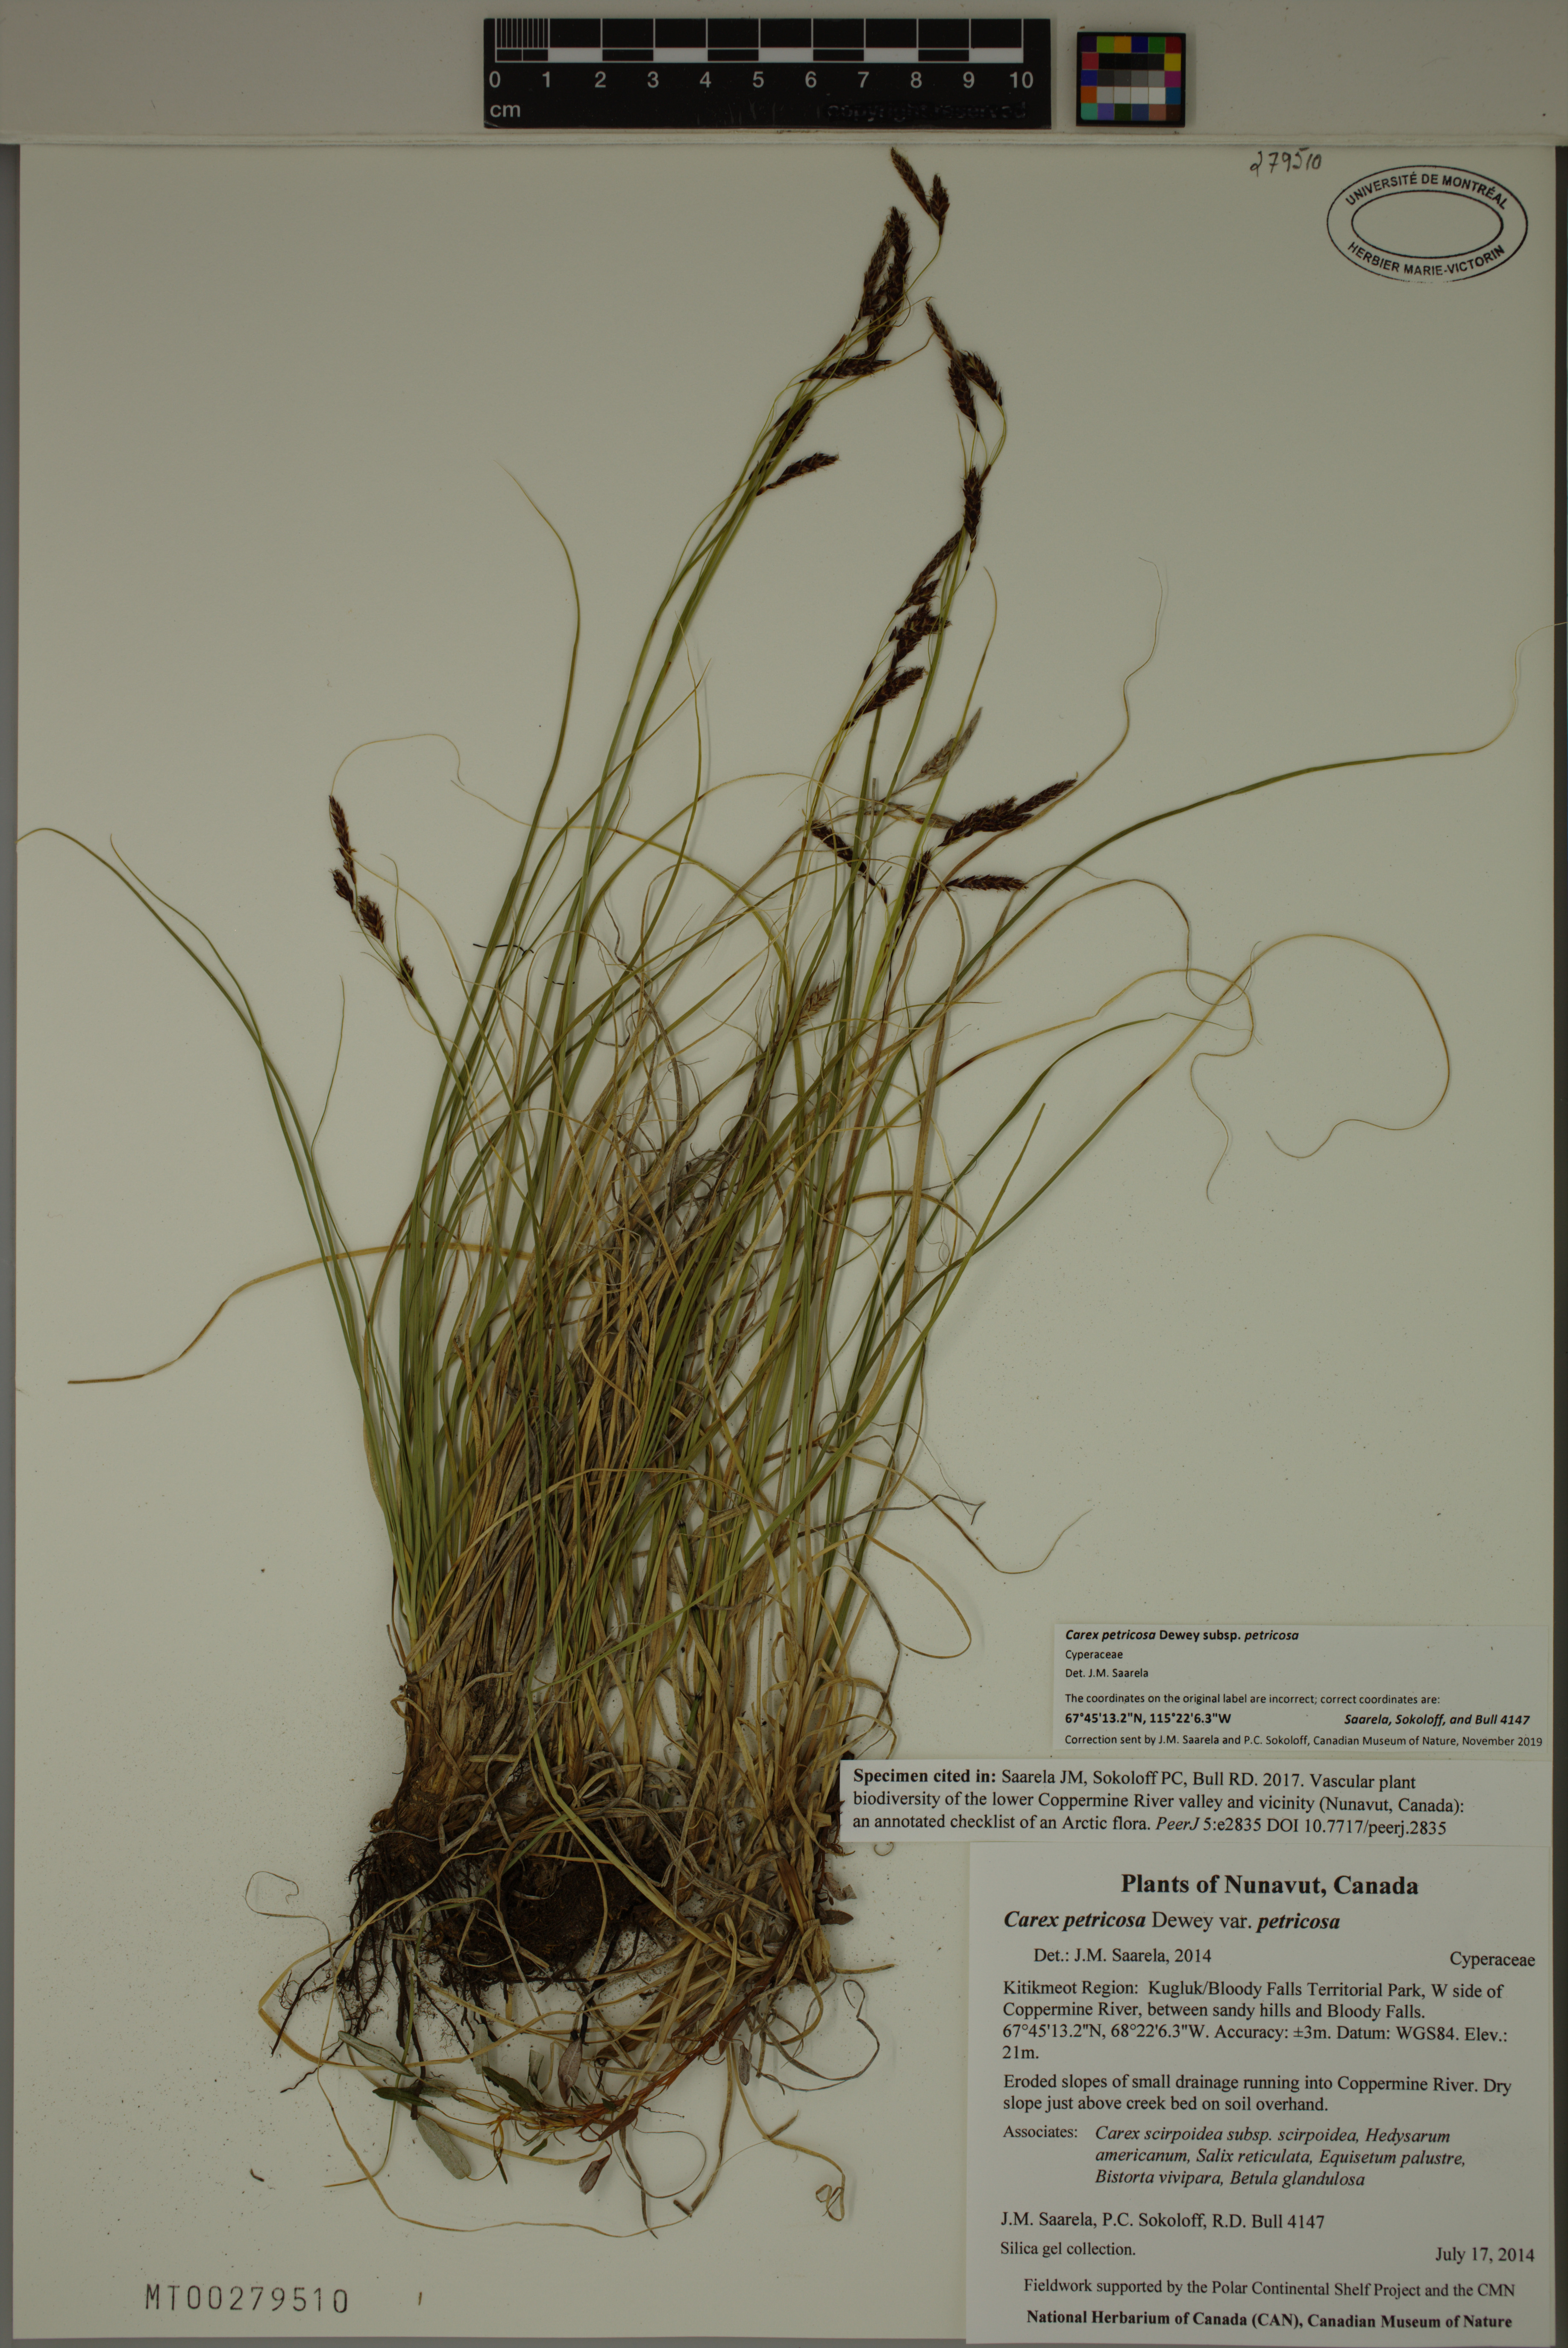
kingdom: Plantae
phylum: Tracheophyta
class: Liliopsida
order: Poales
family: Cyperaceae
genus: Carex
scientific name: Carex petricosa
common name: Rock sedge
